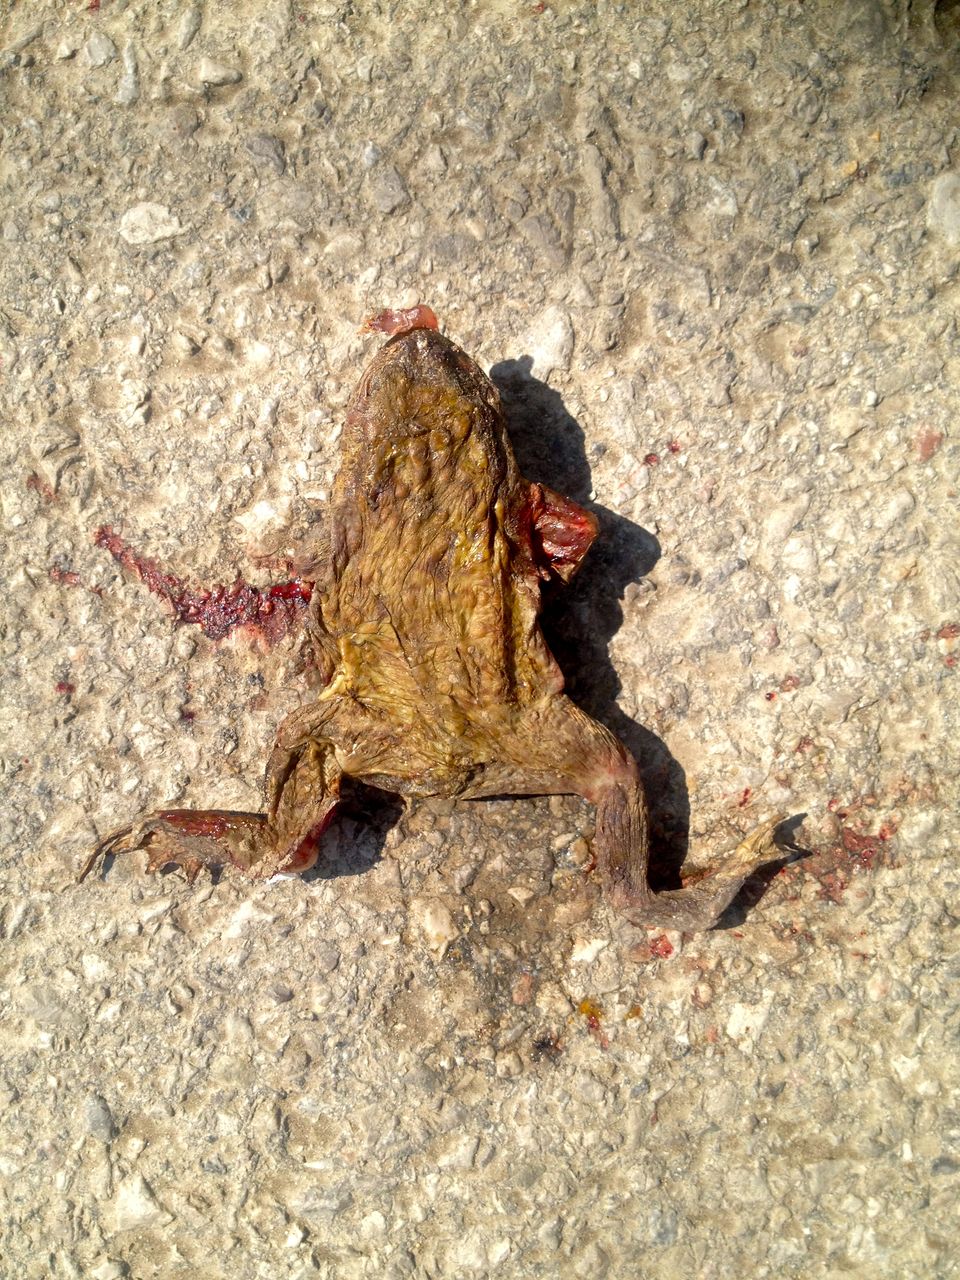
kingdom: Animalia
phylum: Chordata
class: Amphibia
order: Anura
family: Bufonidae
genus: Bufo
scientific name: Bufo bufo
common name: Common toad
